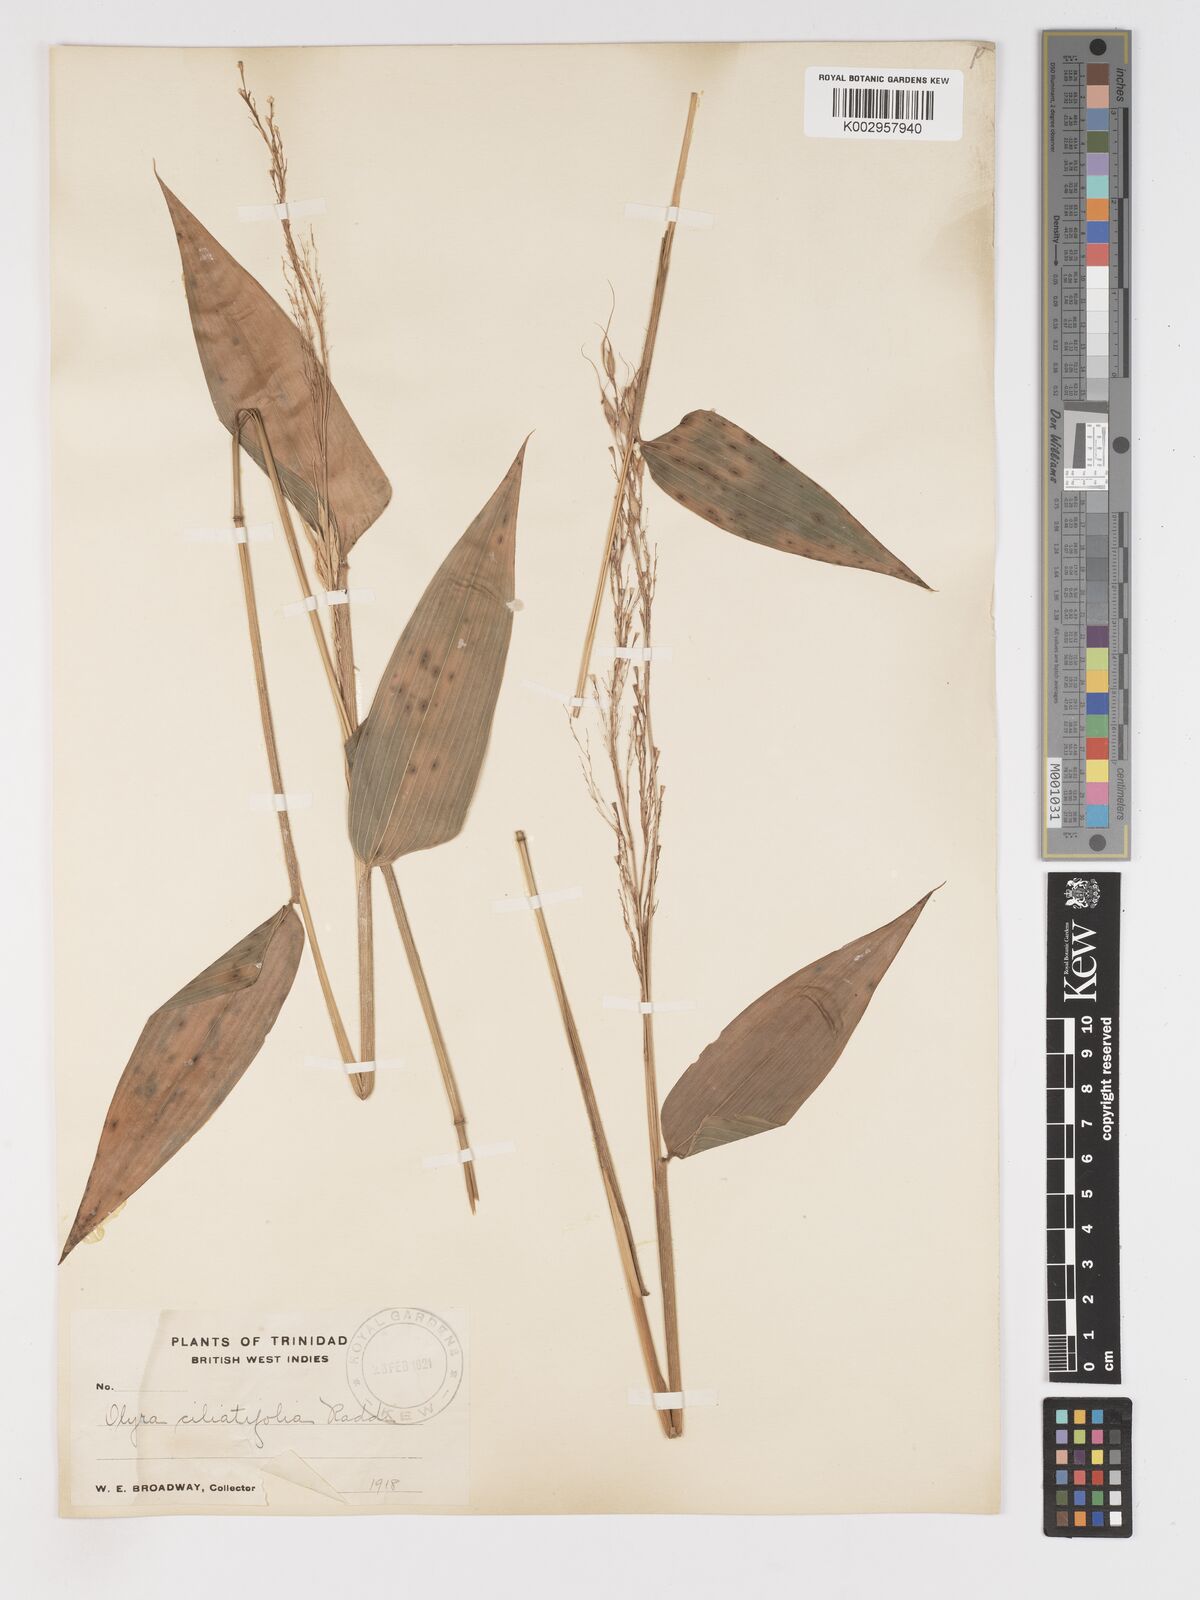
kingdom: Plantae
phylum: Tracheophyta
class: Liliopsida
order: Poales
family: Poaceae
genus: Olyra
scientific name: Olyra ciliatifolia
